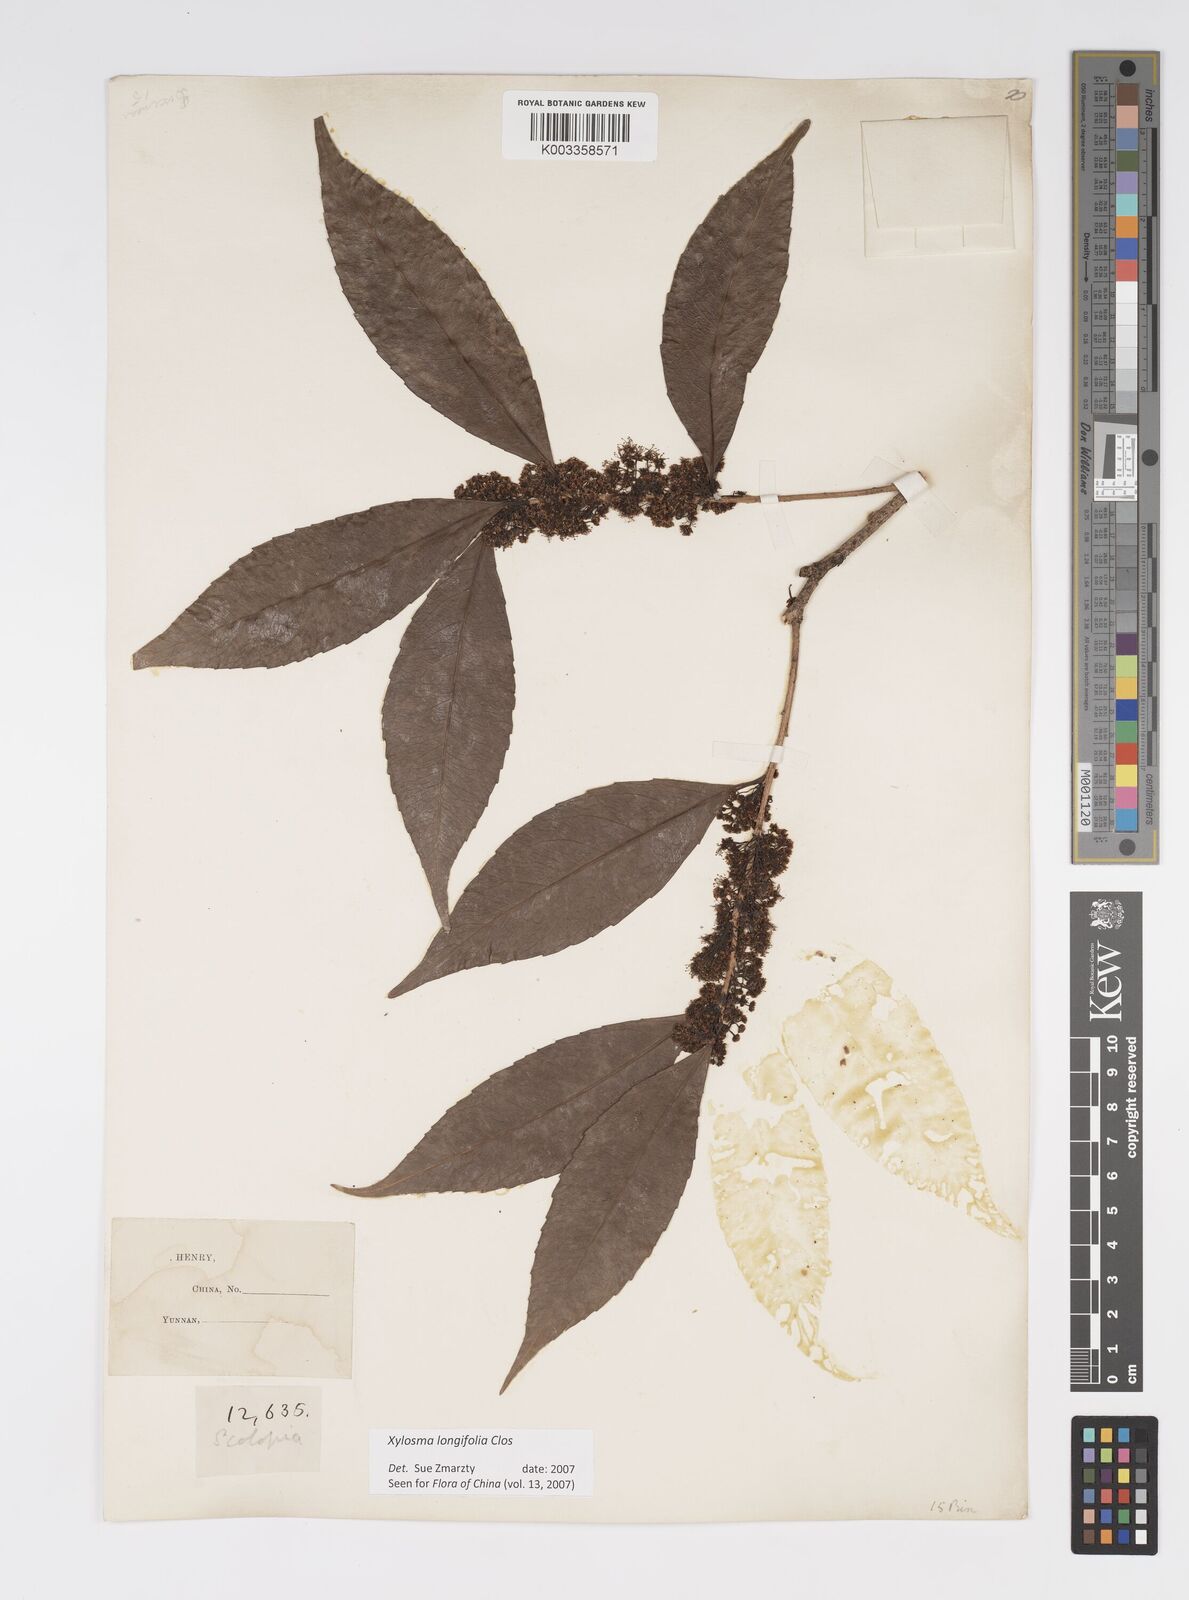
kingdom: Plantae
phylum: Tracheophyta
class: Magnoliopsida
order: Malpighiales
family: Salicaceae
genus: Xylosma
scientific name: Xylosma longifolia
